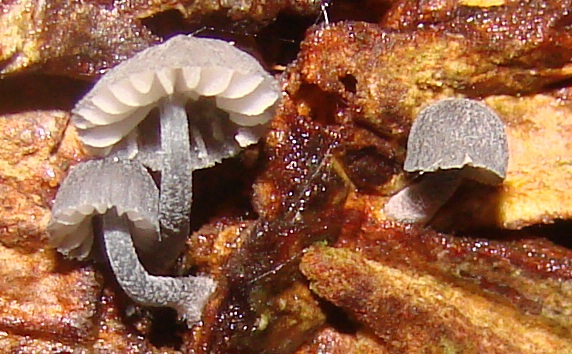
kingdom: Fungi
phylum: Basidiomycota
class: Agaricomycetes
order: Agaricales
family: Mycenaceae
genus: Mycena
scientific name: Mycena pseudocorticola
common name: gråblå bark-huesvamp
